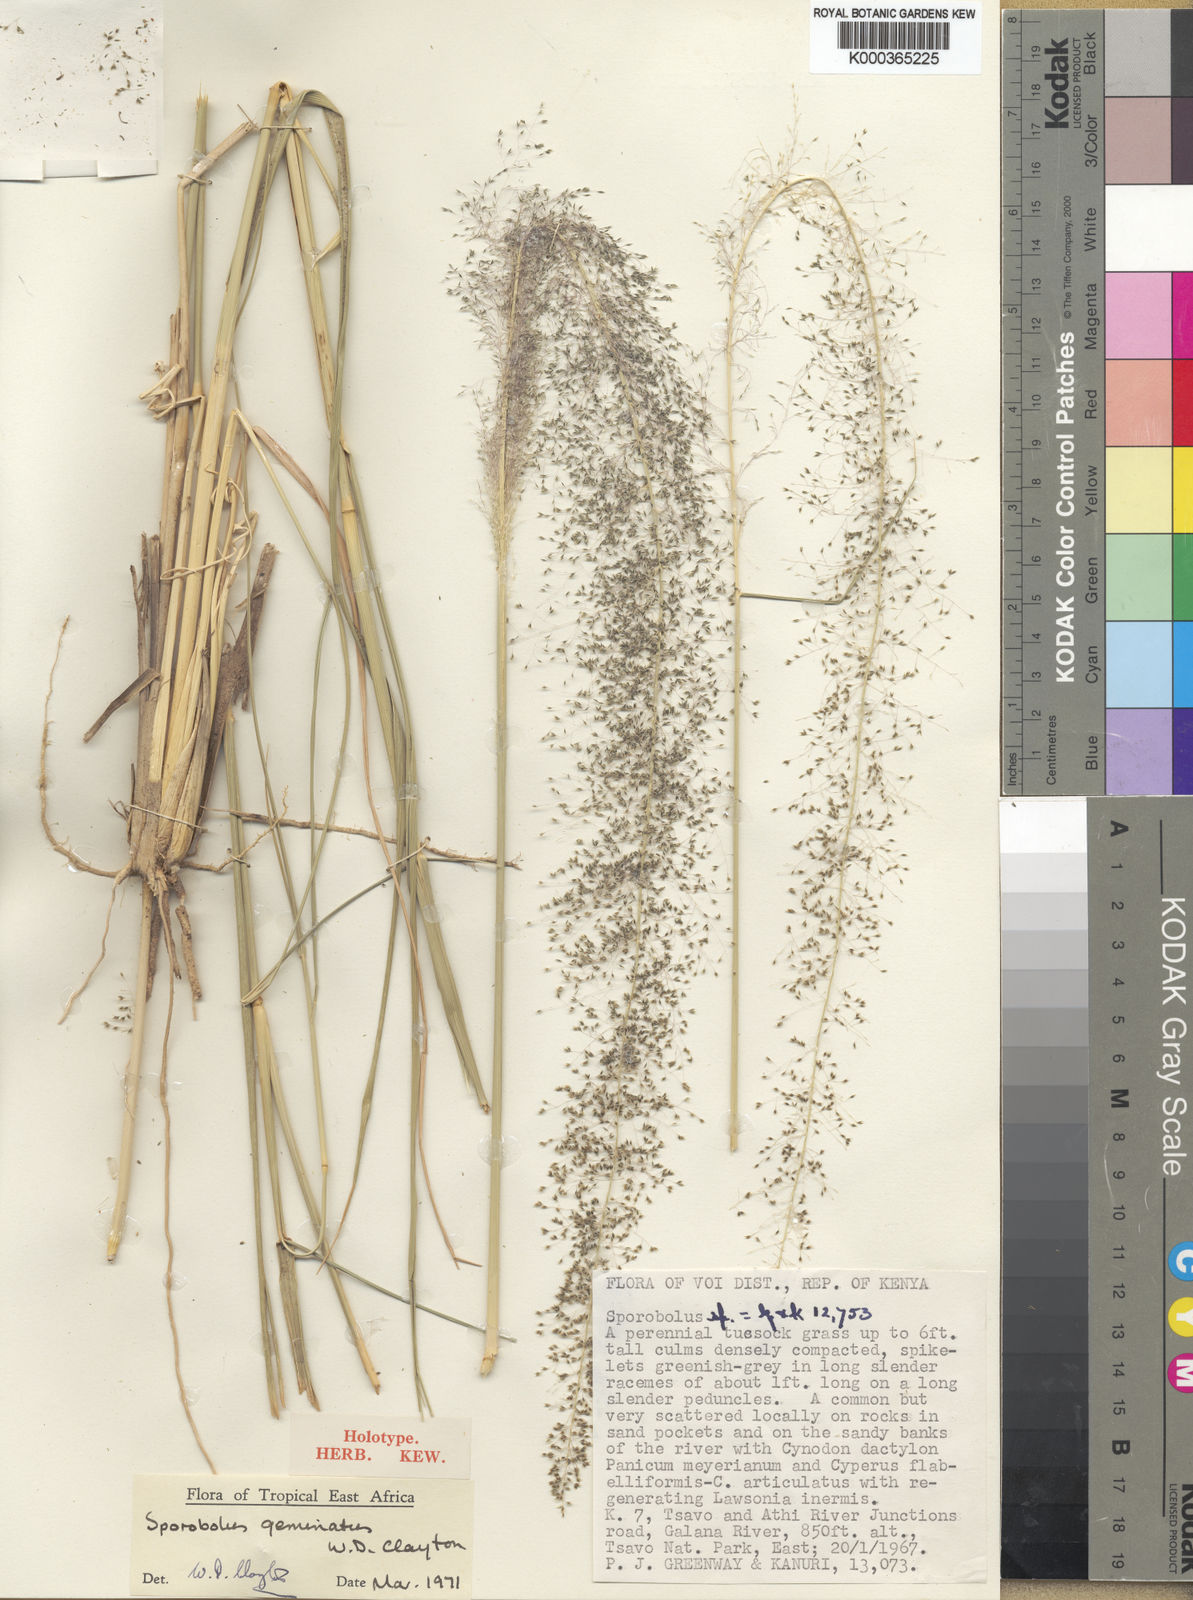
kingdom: Plantae
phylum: Tracheophyta
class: Liliopsida
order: Poales
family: Poaceae
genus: Sporobolus
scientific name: Sporobolus geminatus
